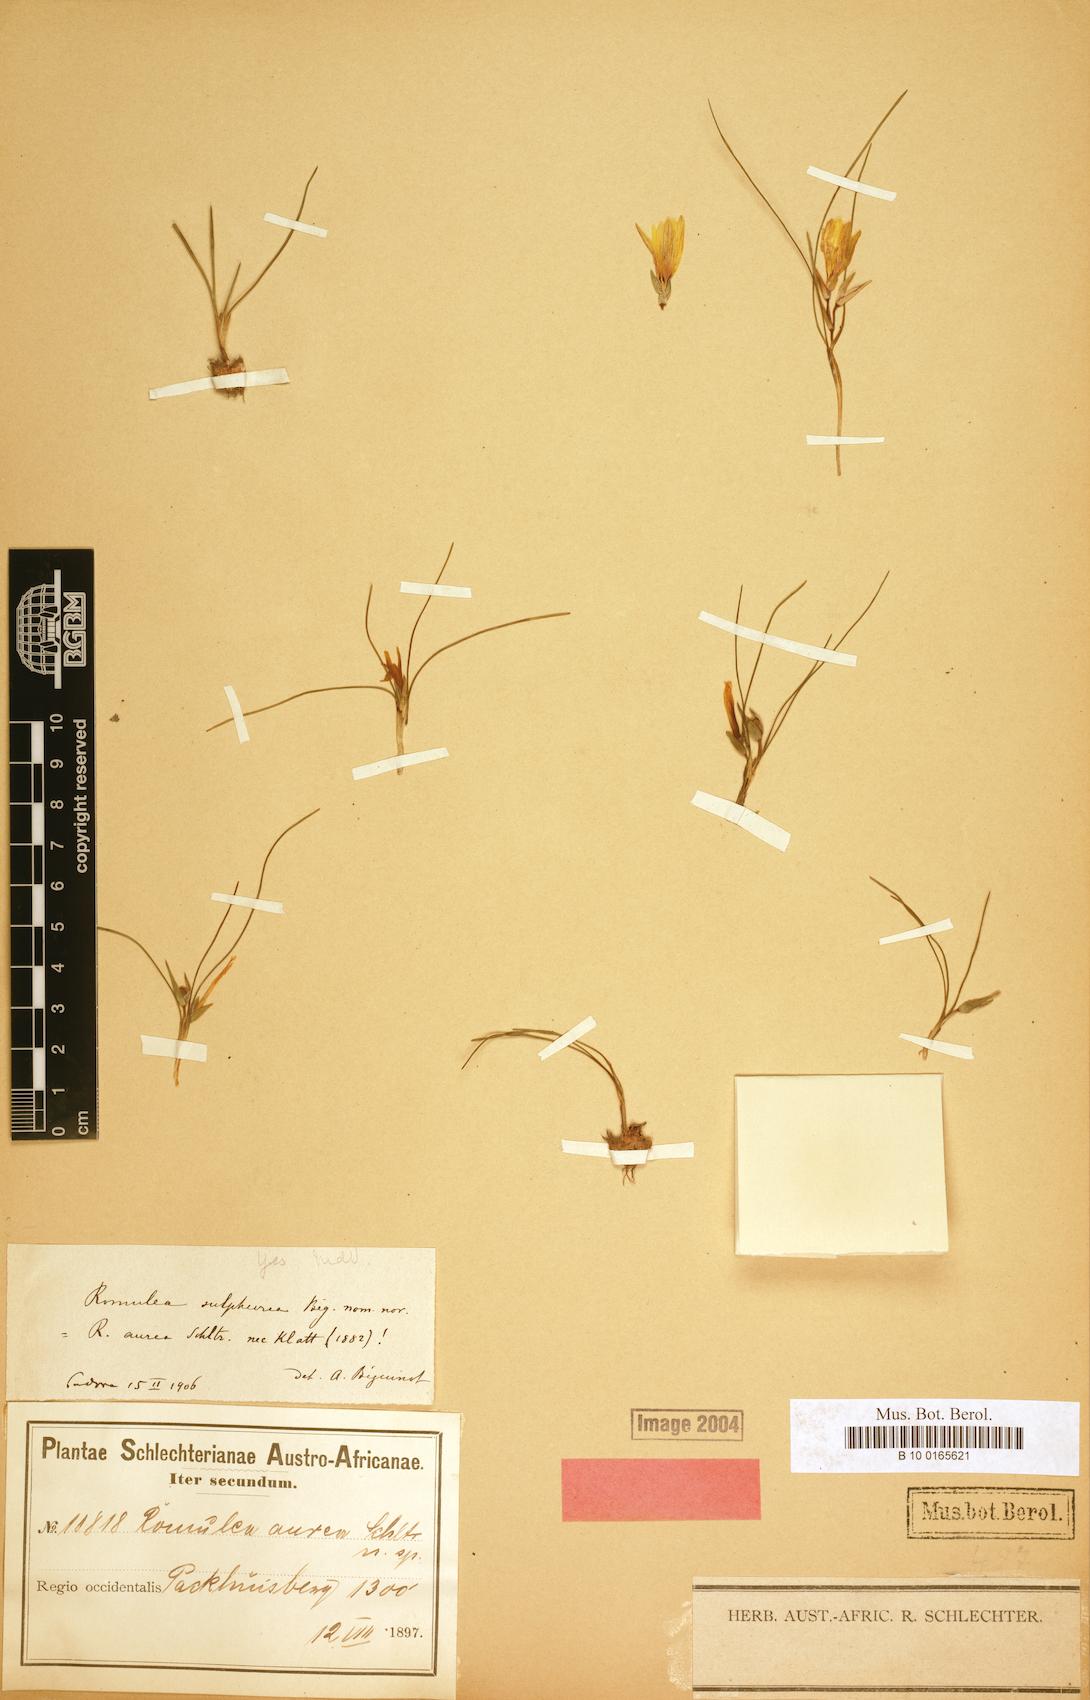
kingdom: Plantae
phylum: Tracheophyta
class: Liliopsida
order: Asparagales
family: Iridaceae
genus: Romulea
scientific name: Romulea sulphurea
